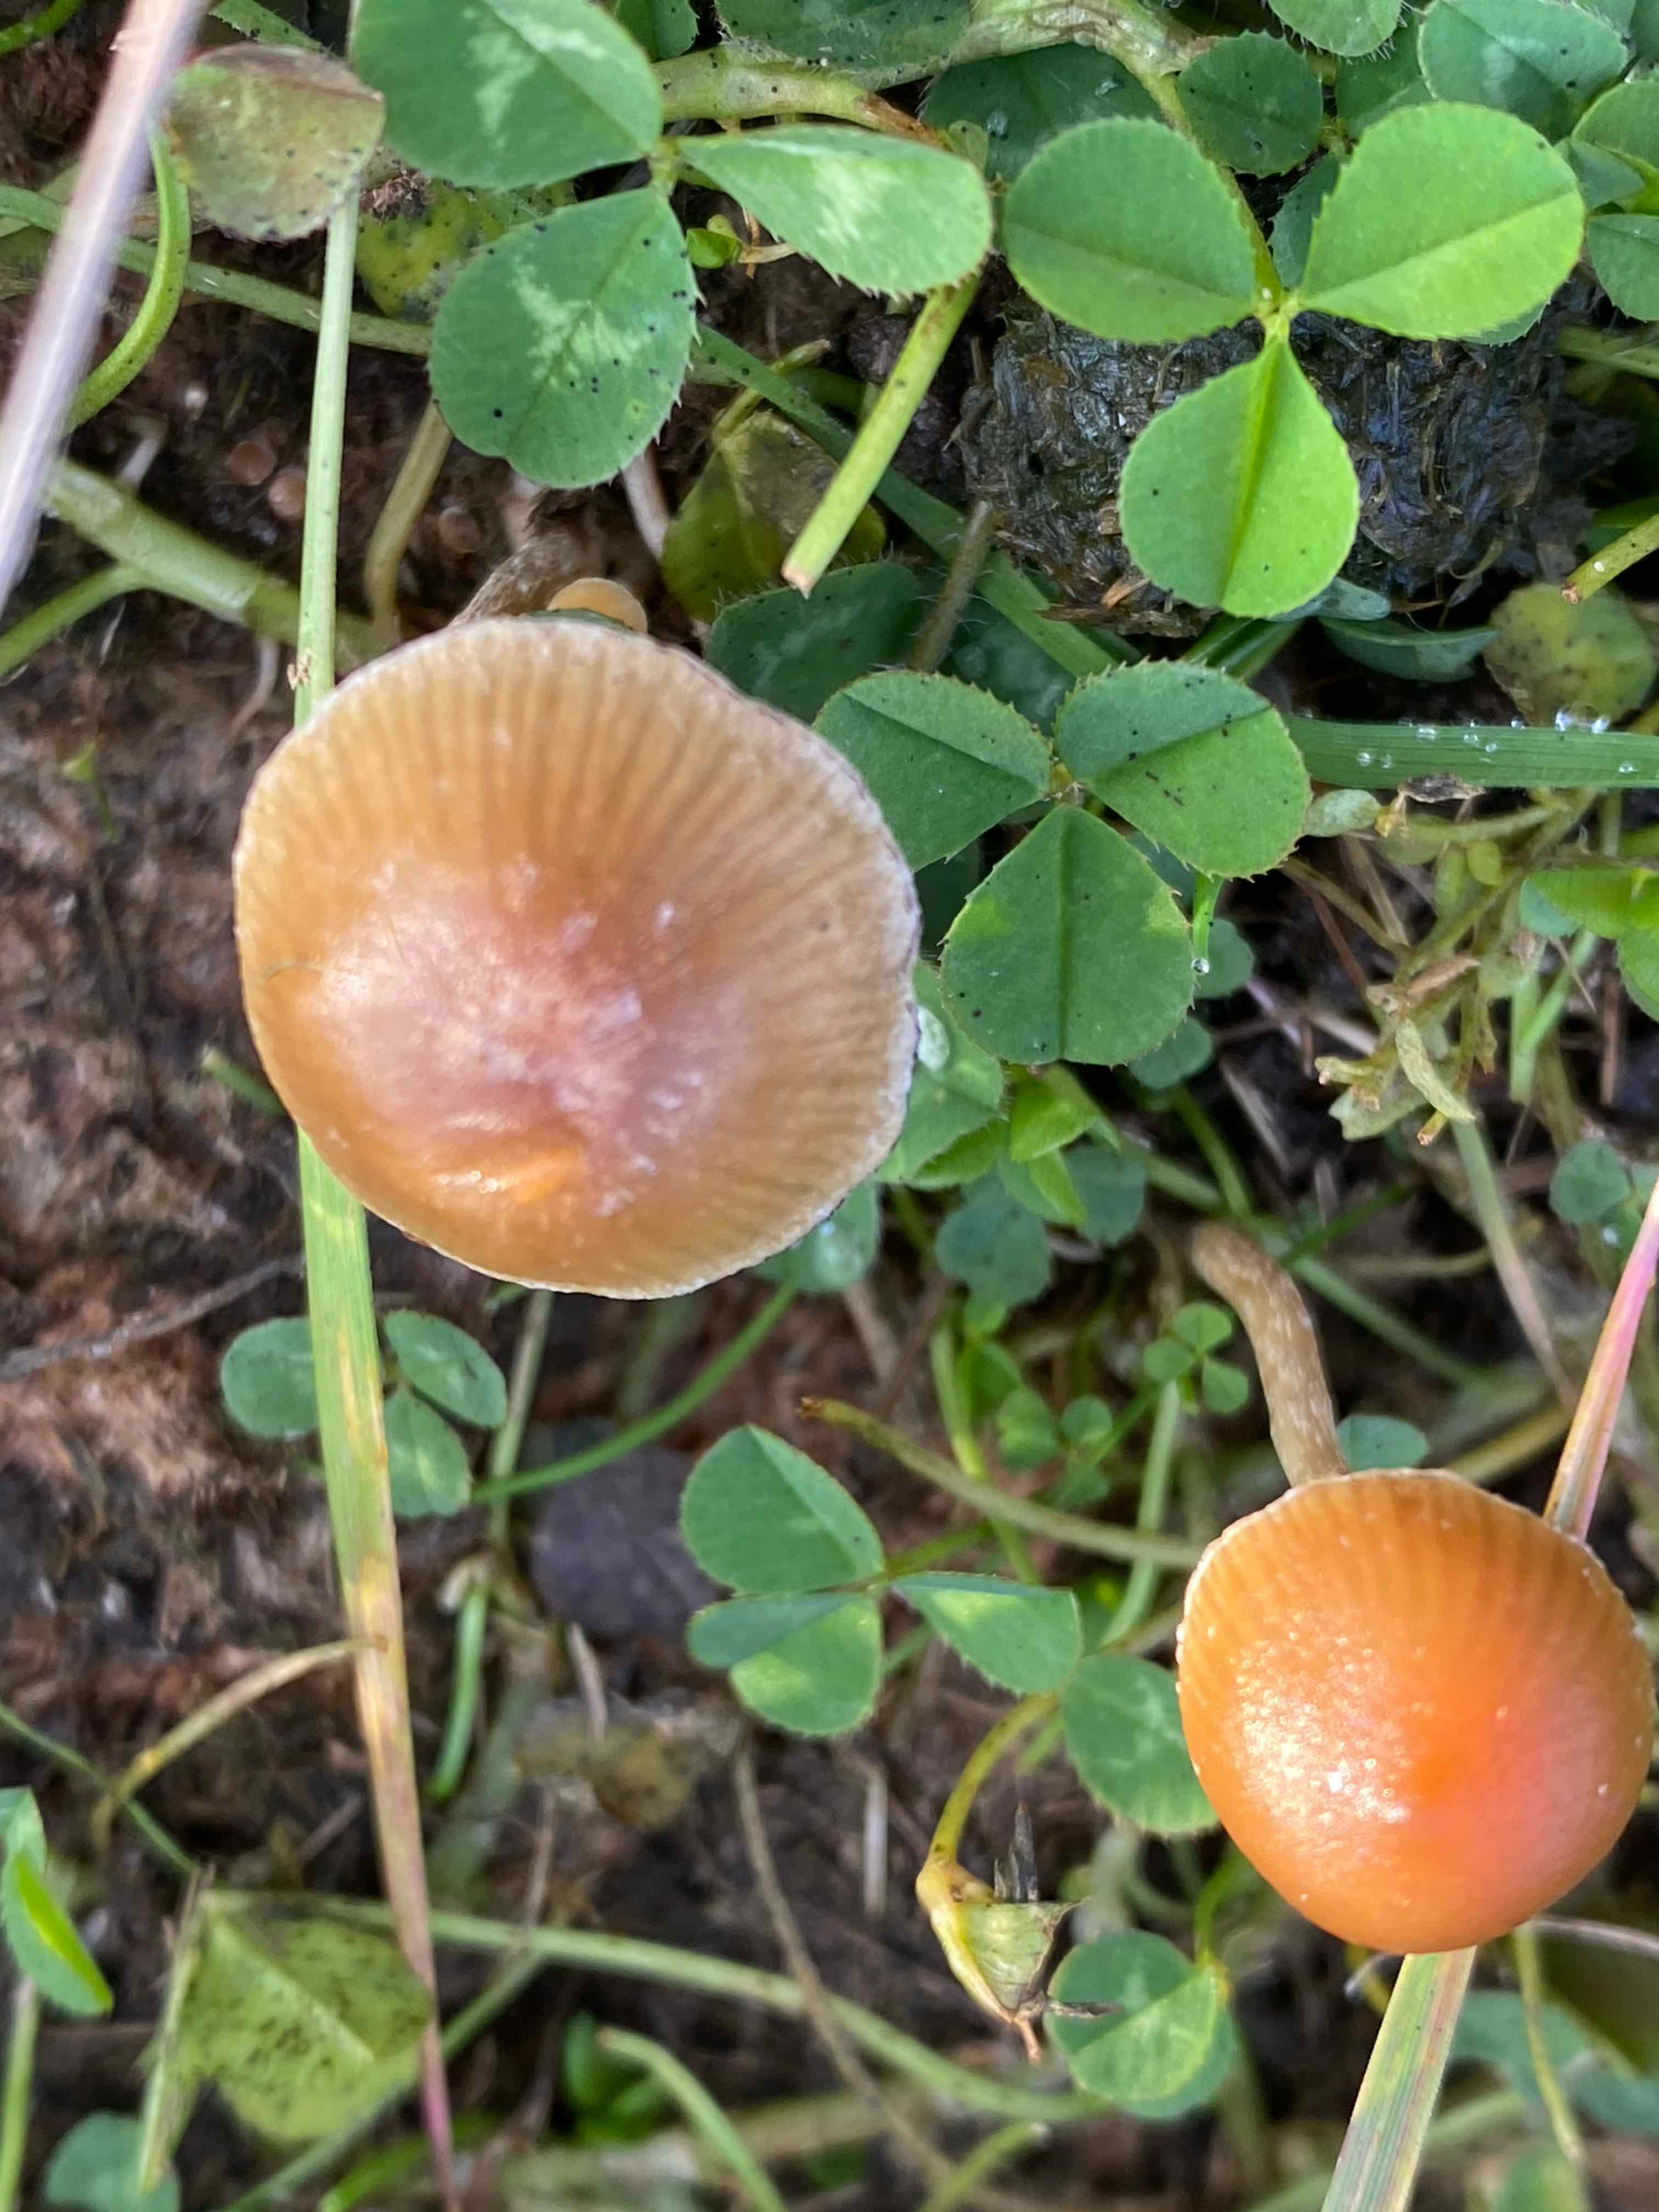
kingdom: Fungi
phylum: Basidiomycota
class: Agaricomycetes
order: Agaricales
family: Strophariaceae
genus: Deconica
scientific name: Deconica
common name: stråhat
